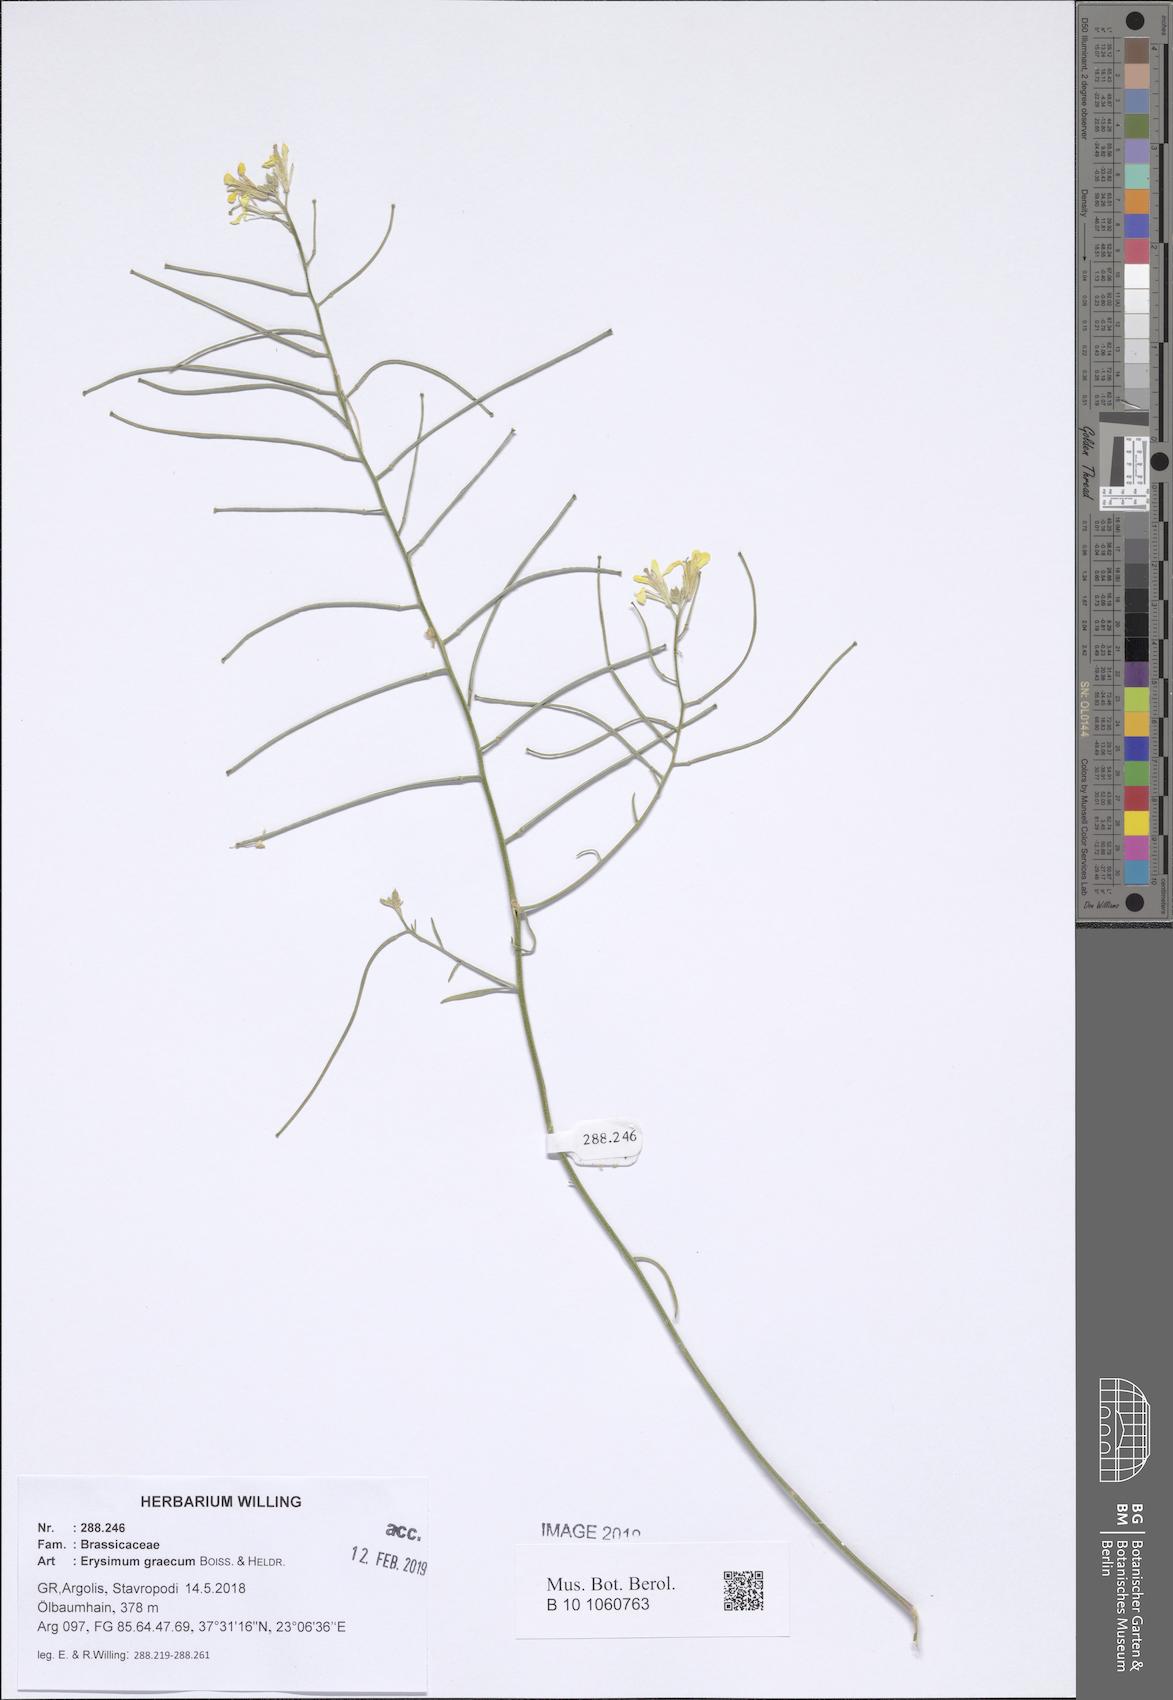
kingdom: Plantae
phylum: Tracheophyta
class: Magnoliopsida
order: Brassicales
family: Brassicaceae
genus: Erysimum
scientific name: Erysimum graecum
